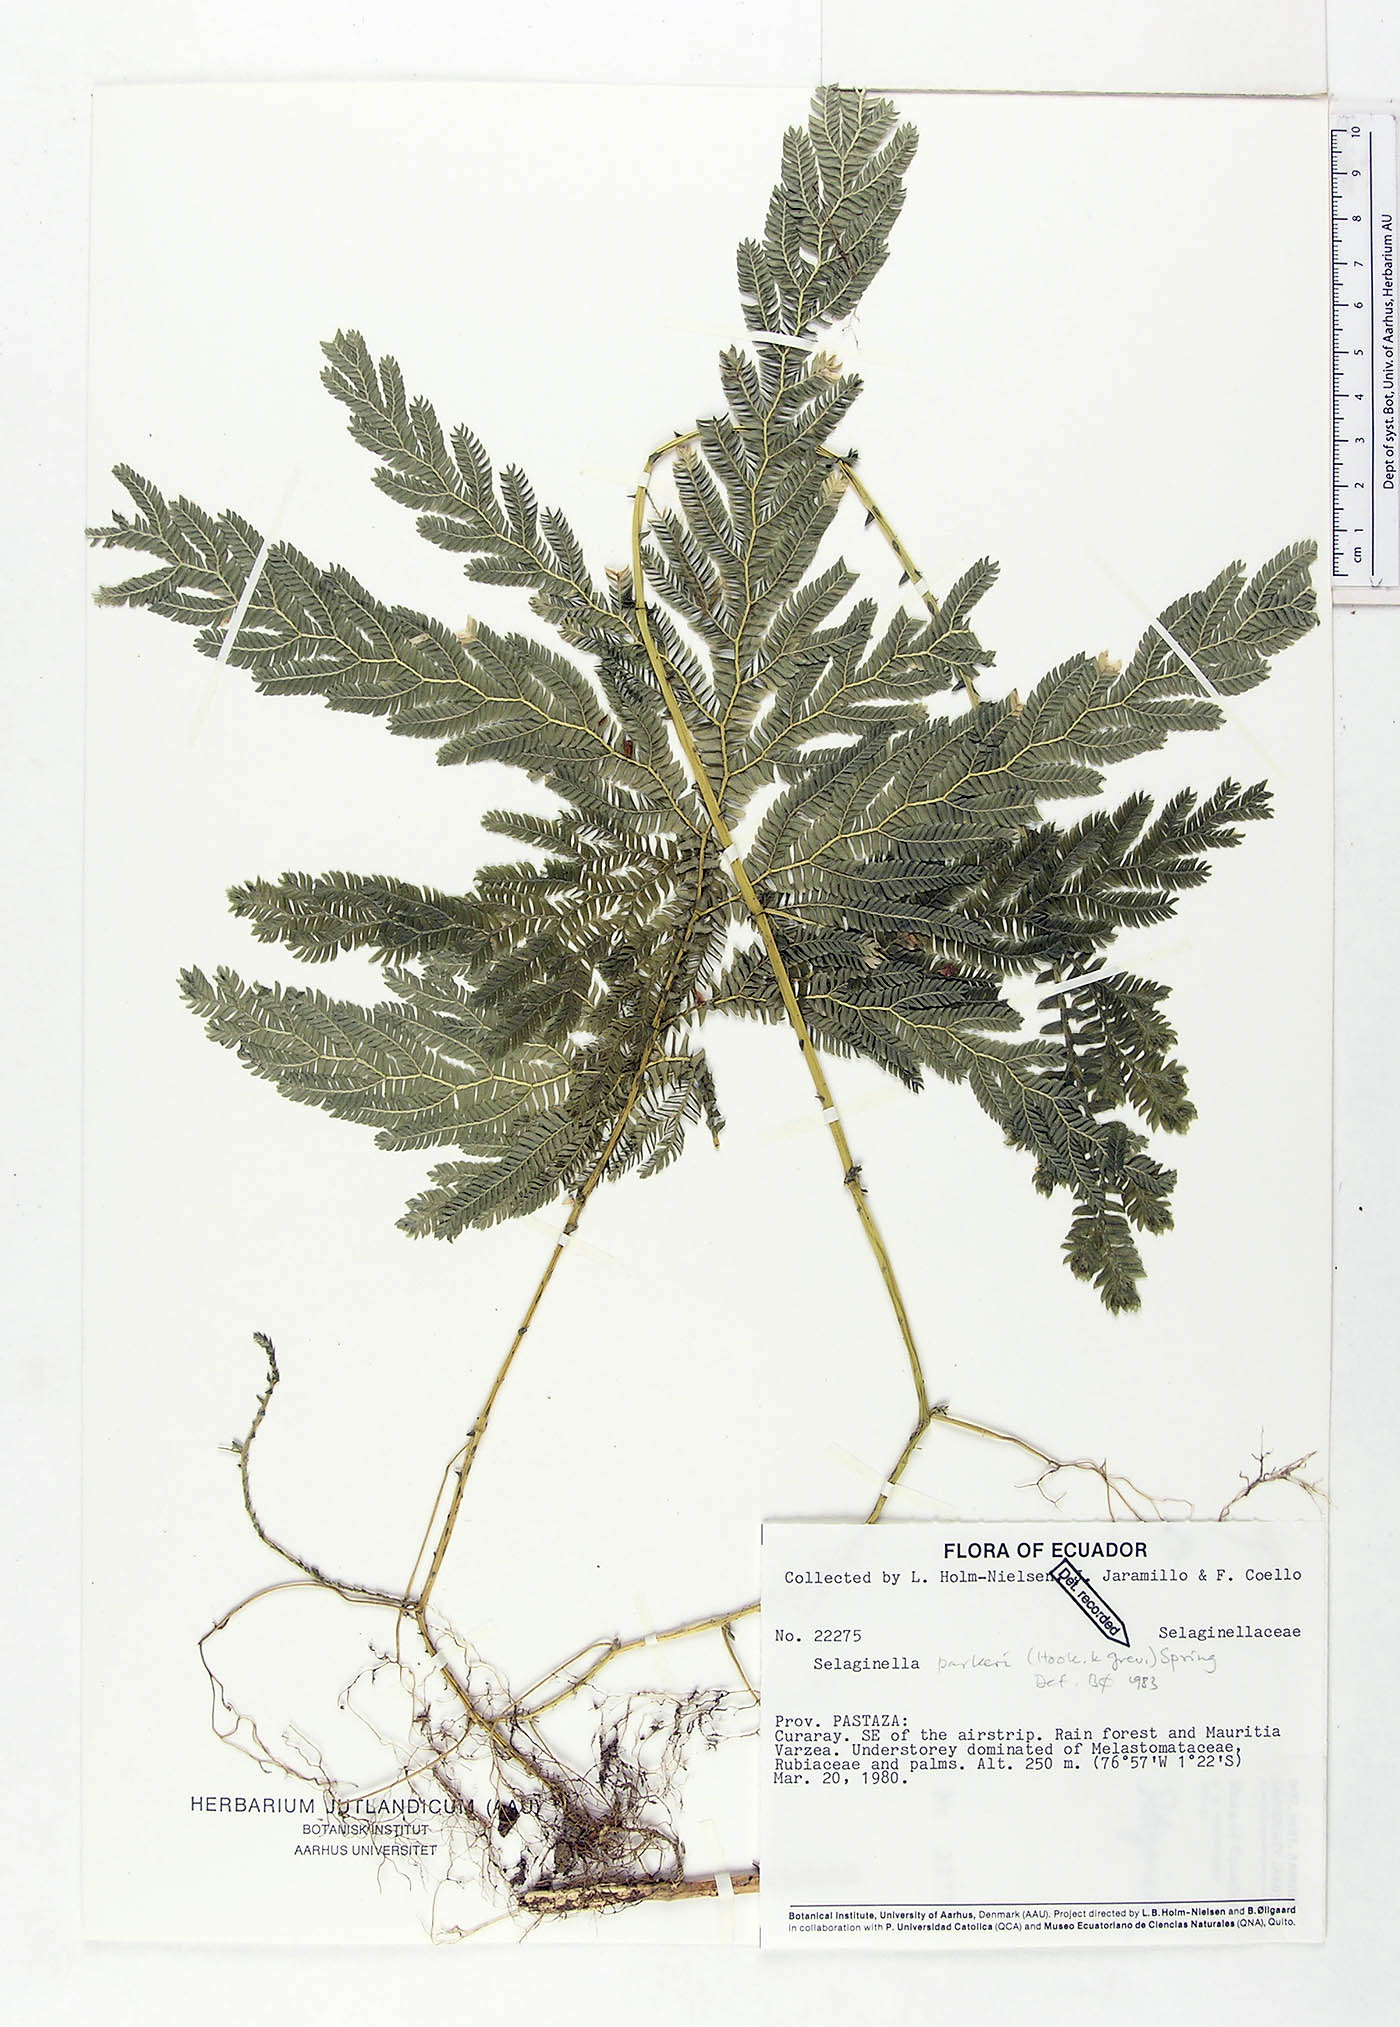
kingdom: Plantae
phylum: Tracheophyta
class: Lycopodiopsida
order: Selaginellales
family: Selaginellaceae
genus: Selaginella
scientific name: Selaginella parkeri
